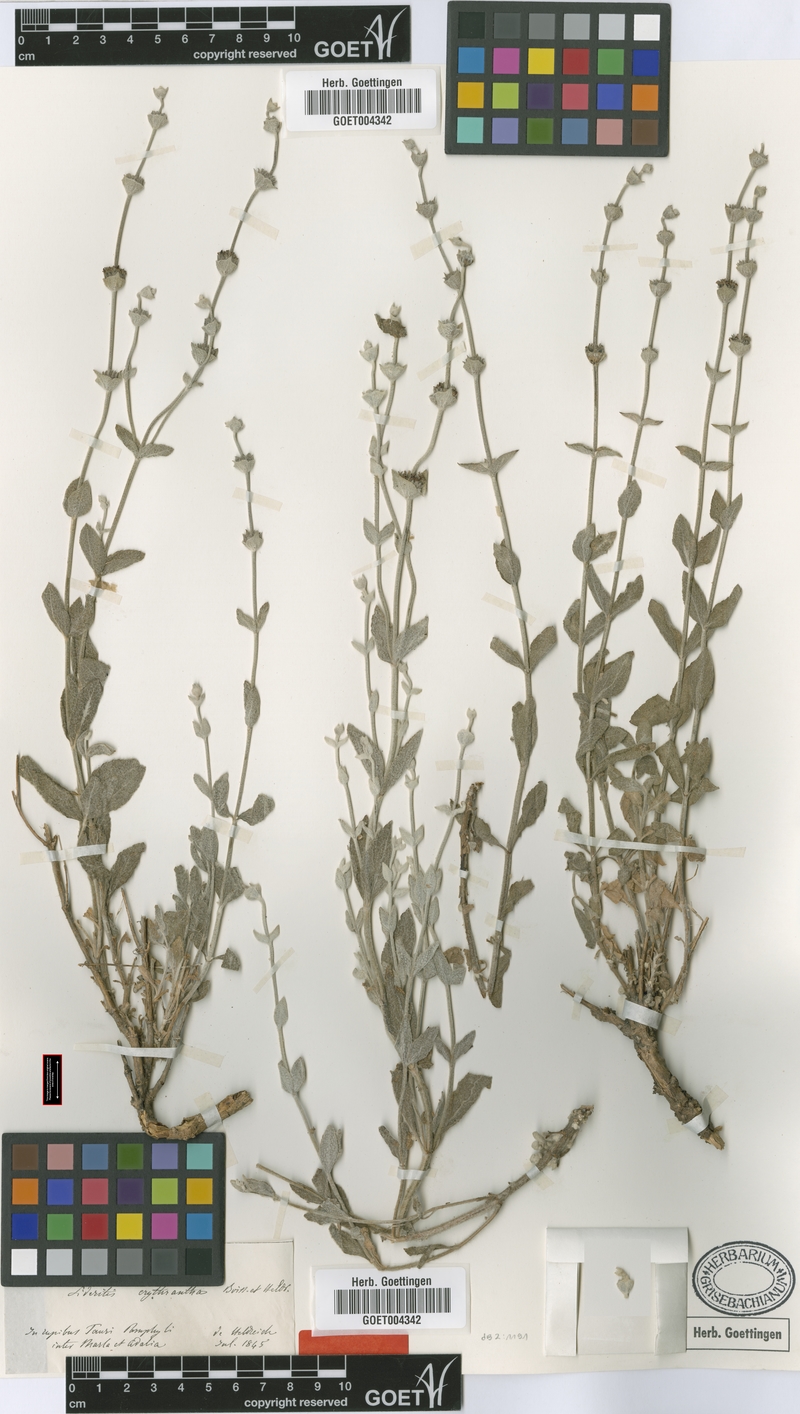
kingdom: Plantae
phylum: Tracheophyta
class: Magnoliopsida
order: Lamiales
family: Lamiaceae
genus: Sideritis
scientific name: Sideritis erythrantha
